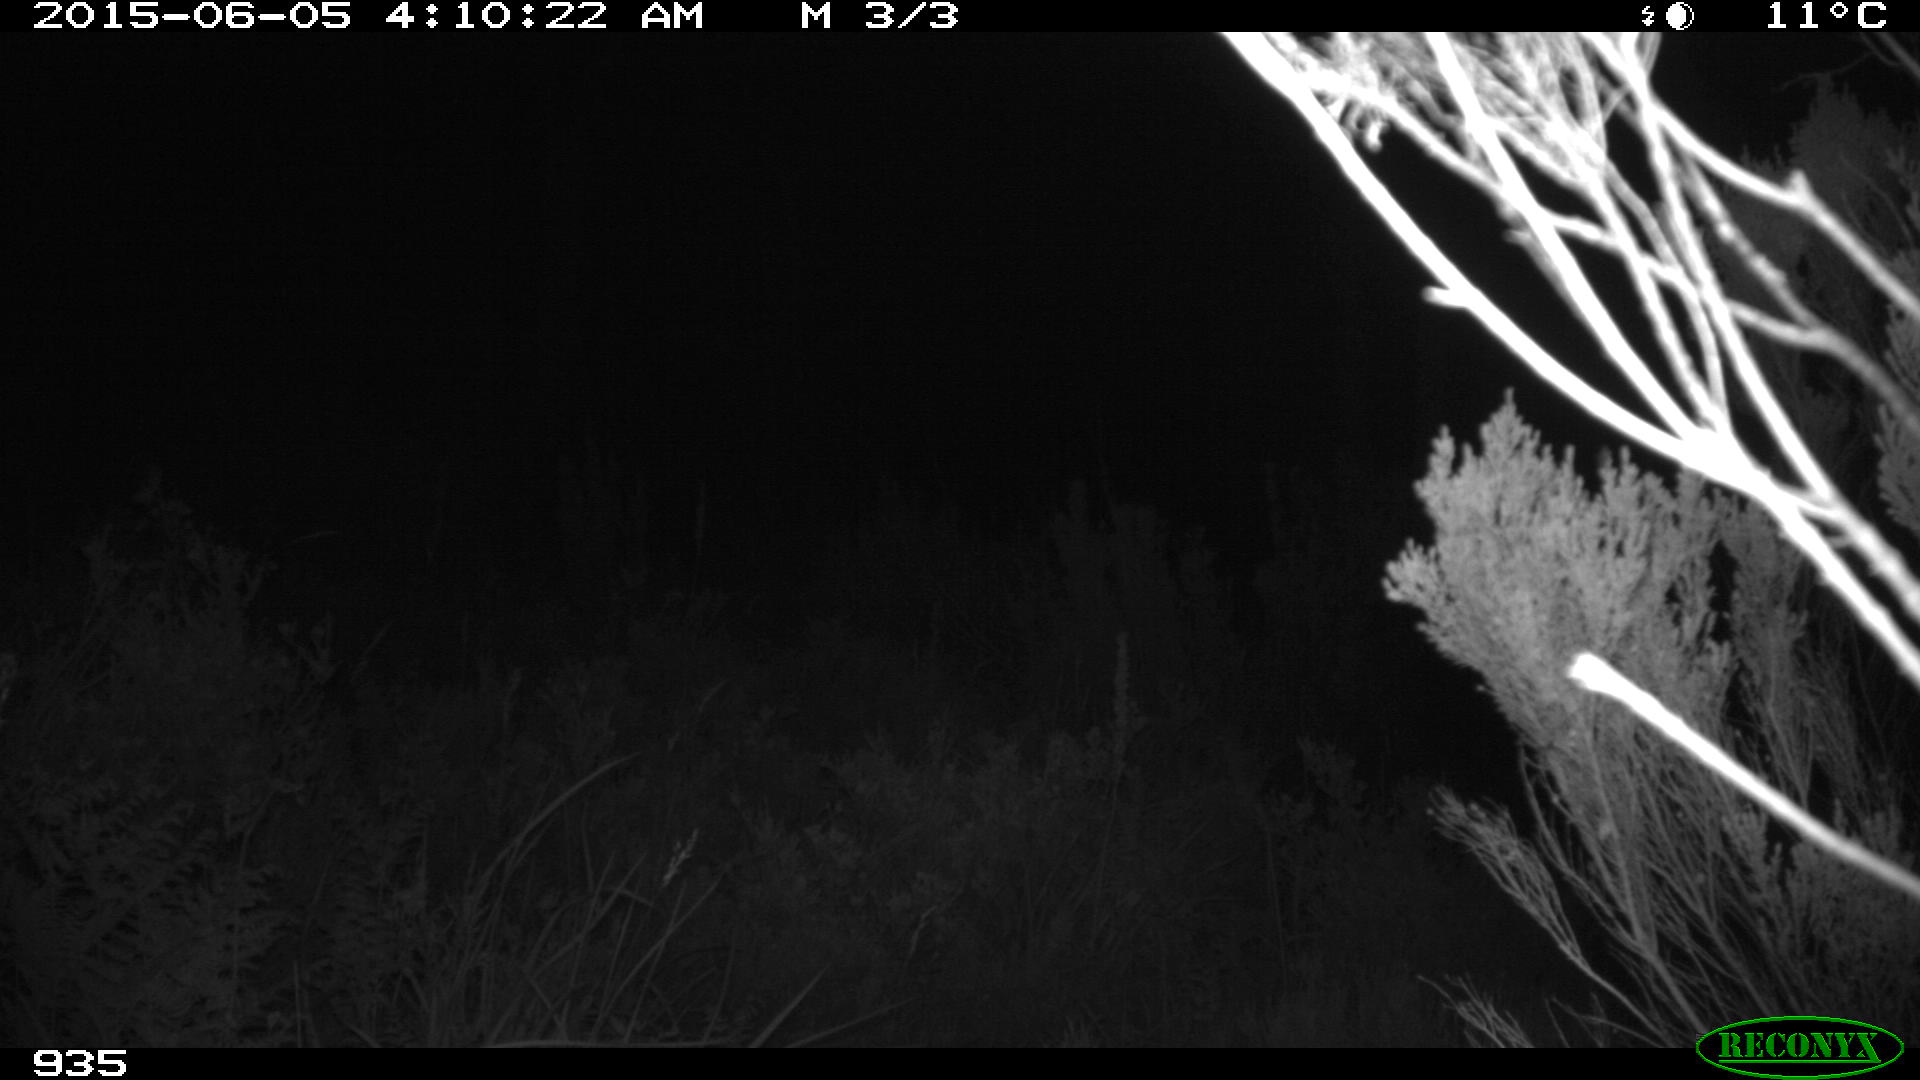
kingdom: Animalia
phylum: Chordata
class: Mammalia
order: Artiodactyla
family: Cervidae
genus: Capreolus
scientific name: Capreolus capreolus
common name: Western roe deer
